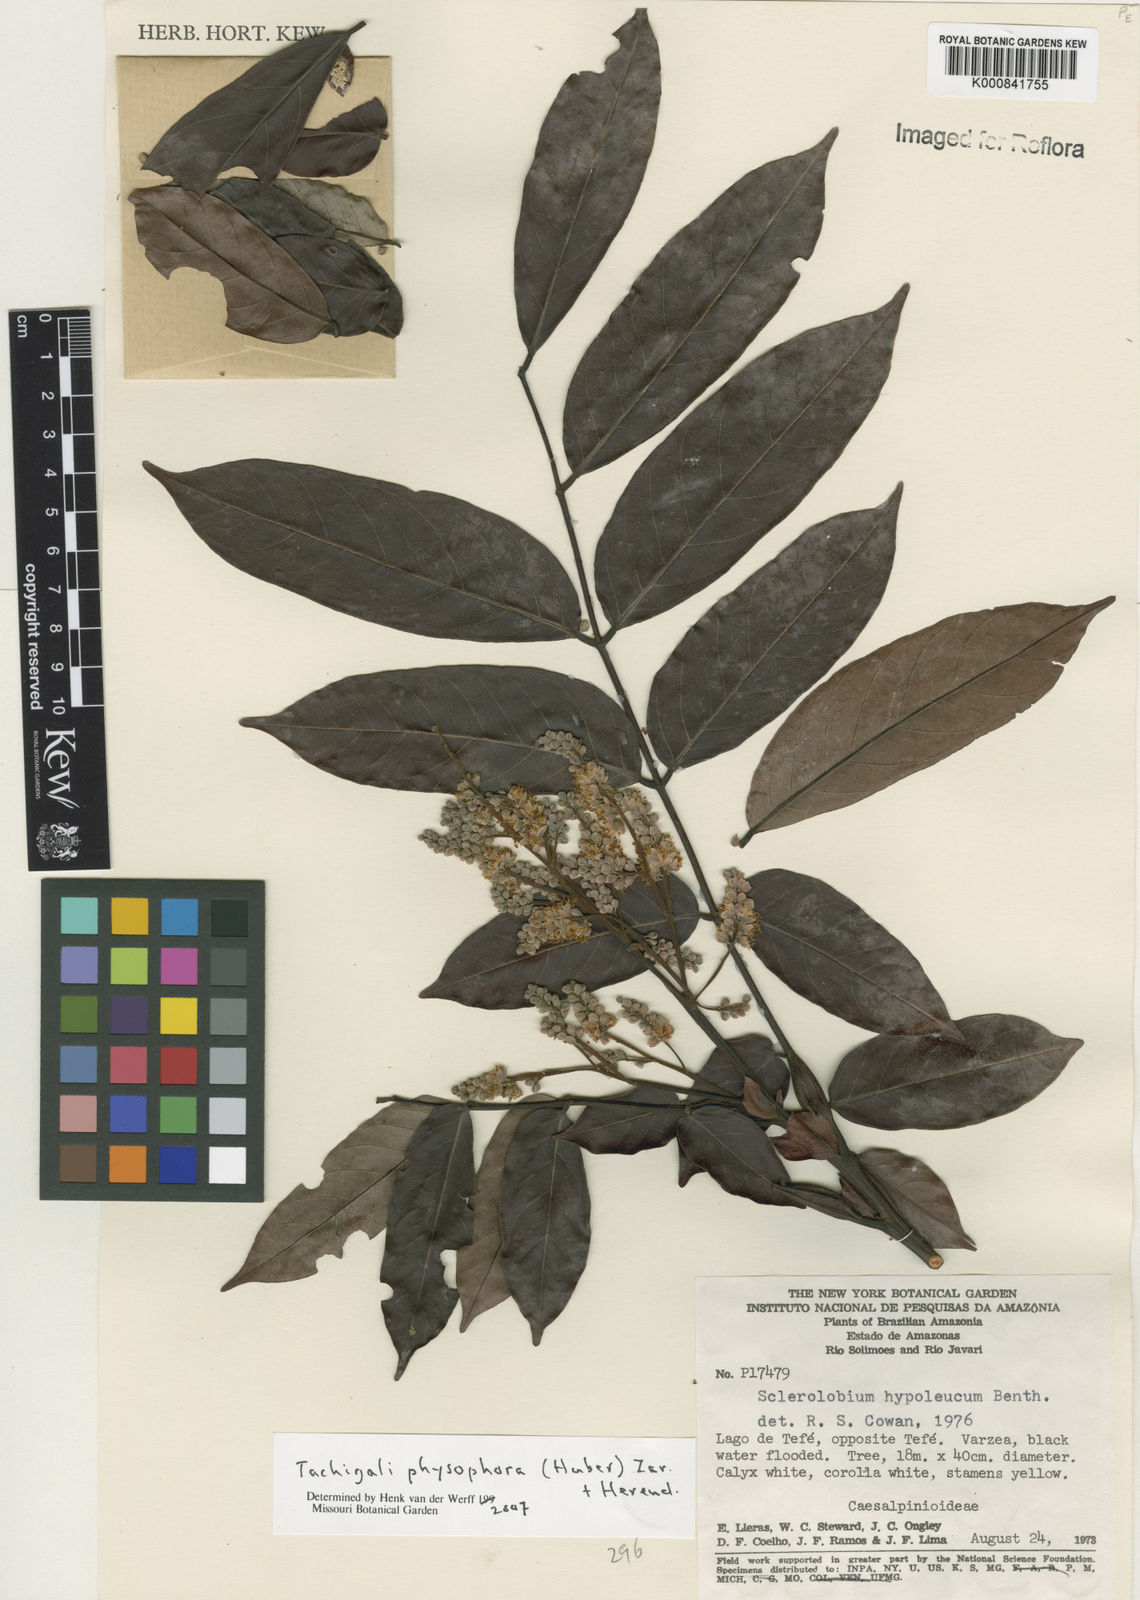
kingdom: Plantae
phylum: Tracheophyta
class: Magnoliopsida
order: Fabales
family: Fabaceae
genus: Tachigali
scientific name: Tachigali physophora
